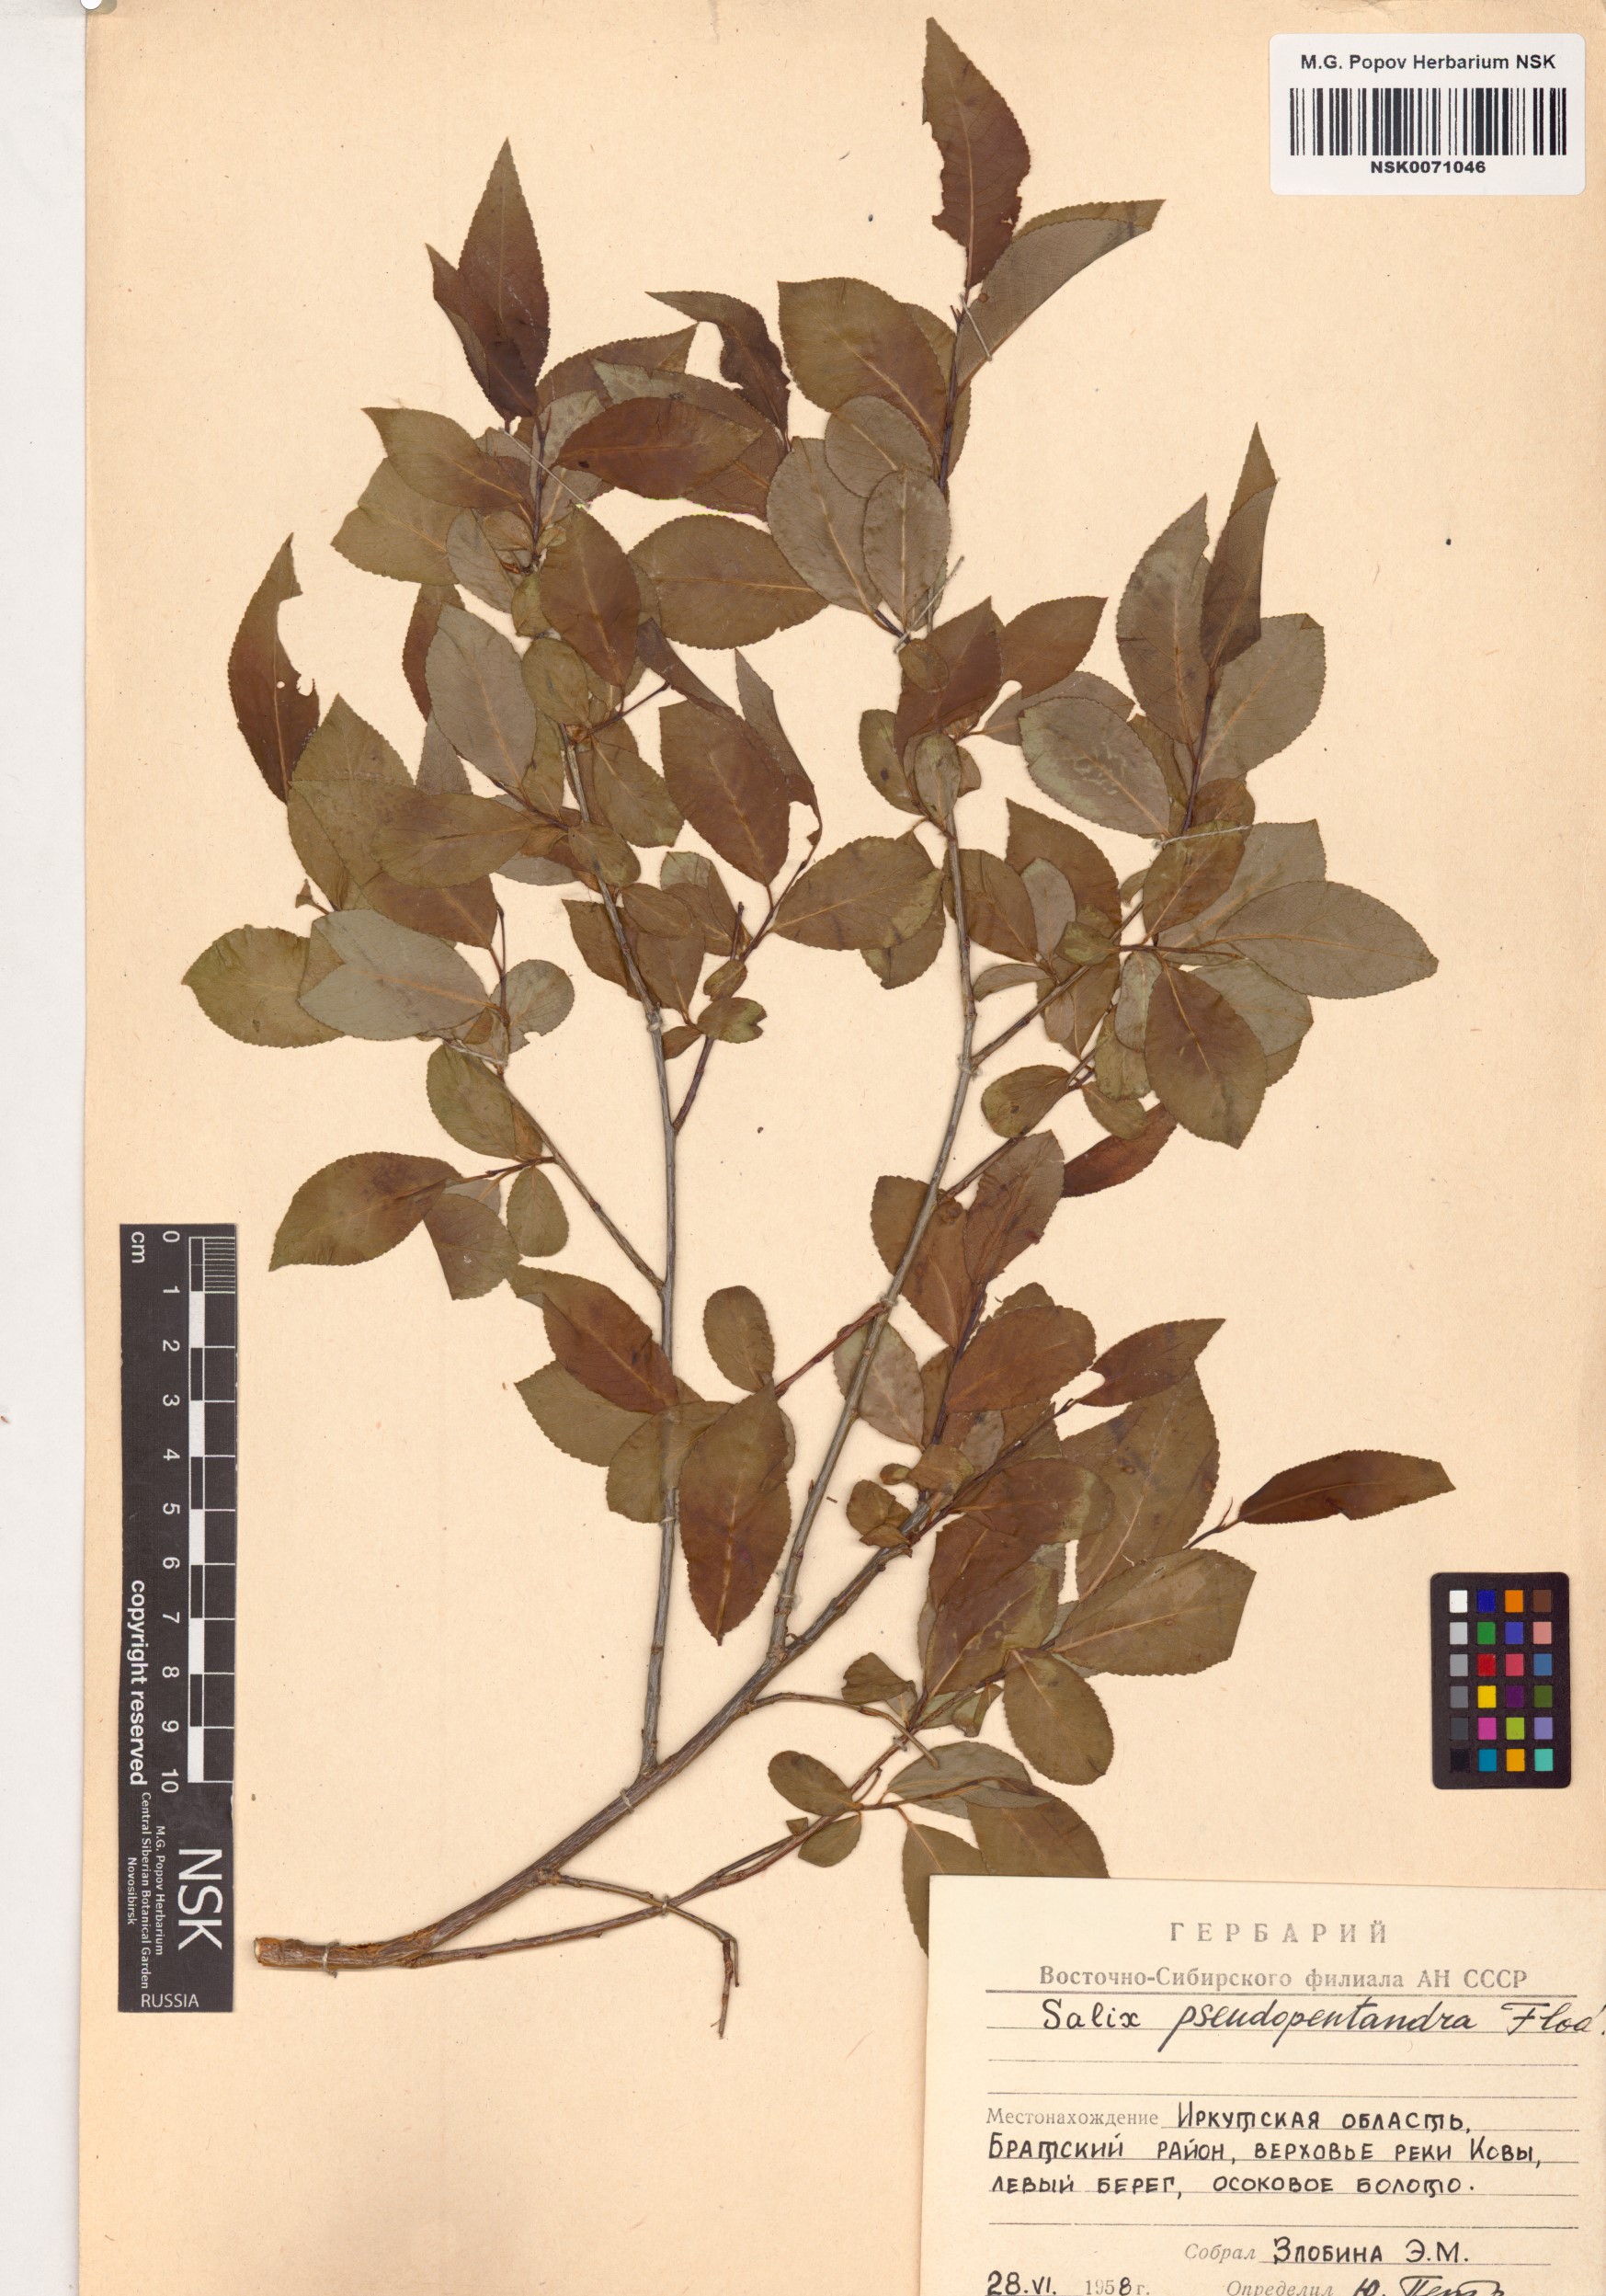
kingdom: Plantae
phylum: Tracheophyta
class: Magnoliopsida
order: Malpighiales
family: Salicaceae
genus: Salix
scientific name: Salix pseudopentandra
